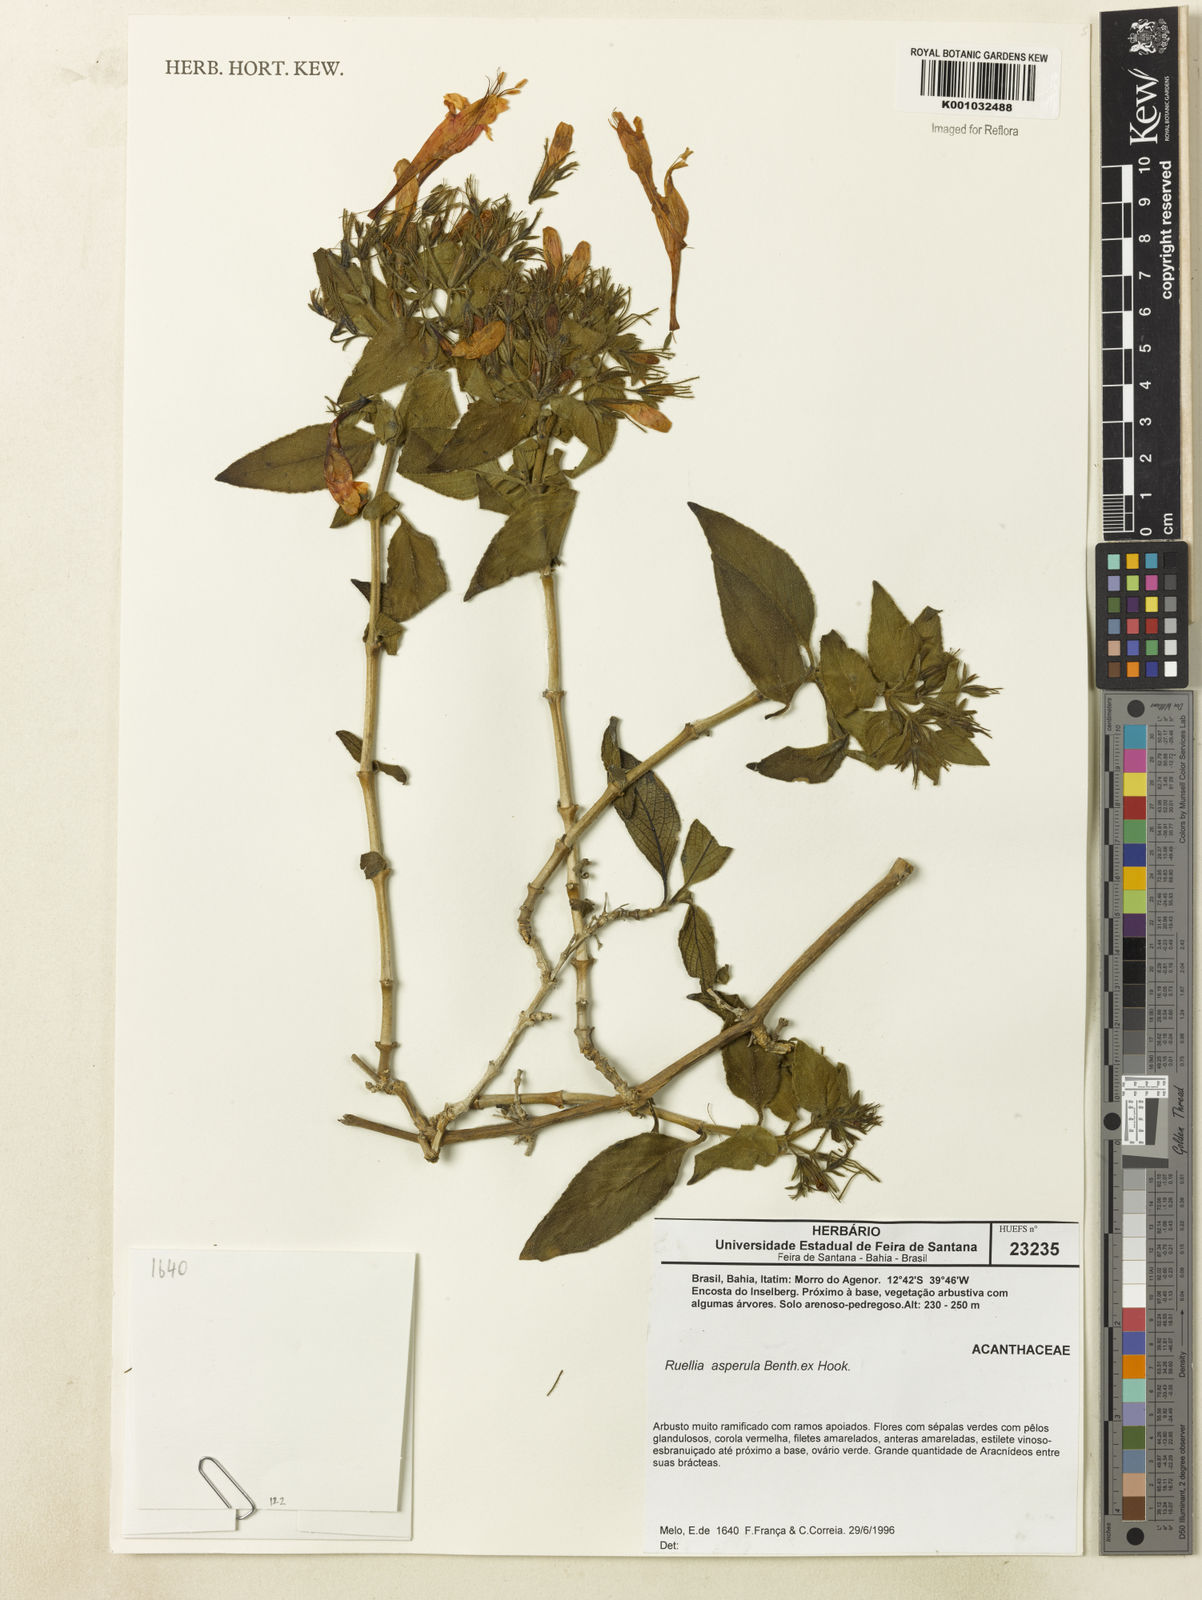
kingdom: Plantae
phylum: Tracheophyta
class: Magnoliopsida
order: Lamiales
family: Acanthaceae
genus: Ruellia
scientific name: Ruellia asperula
